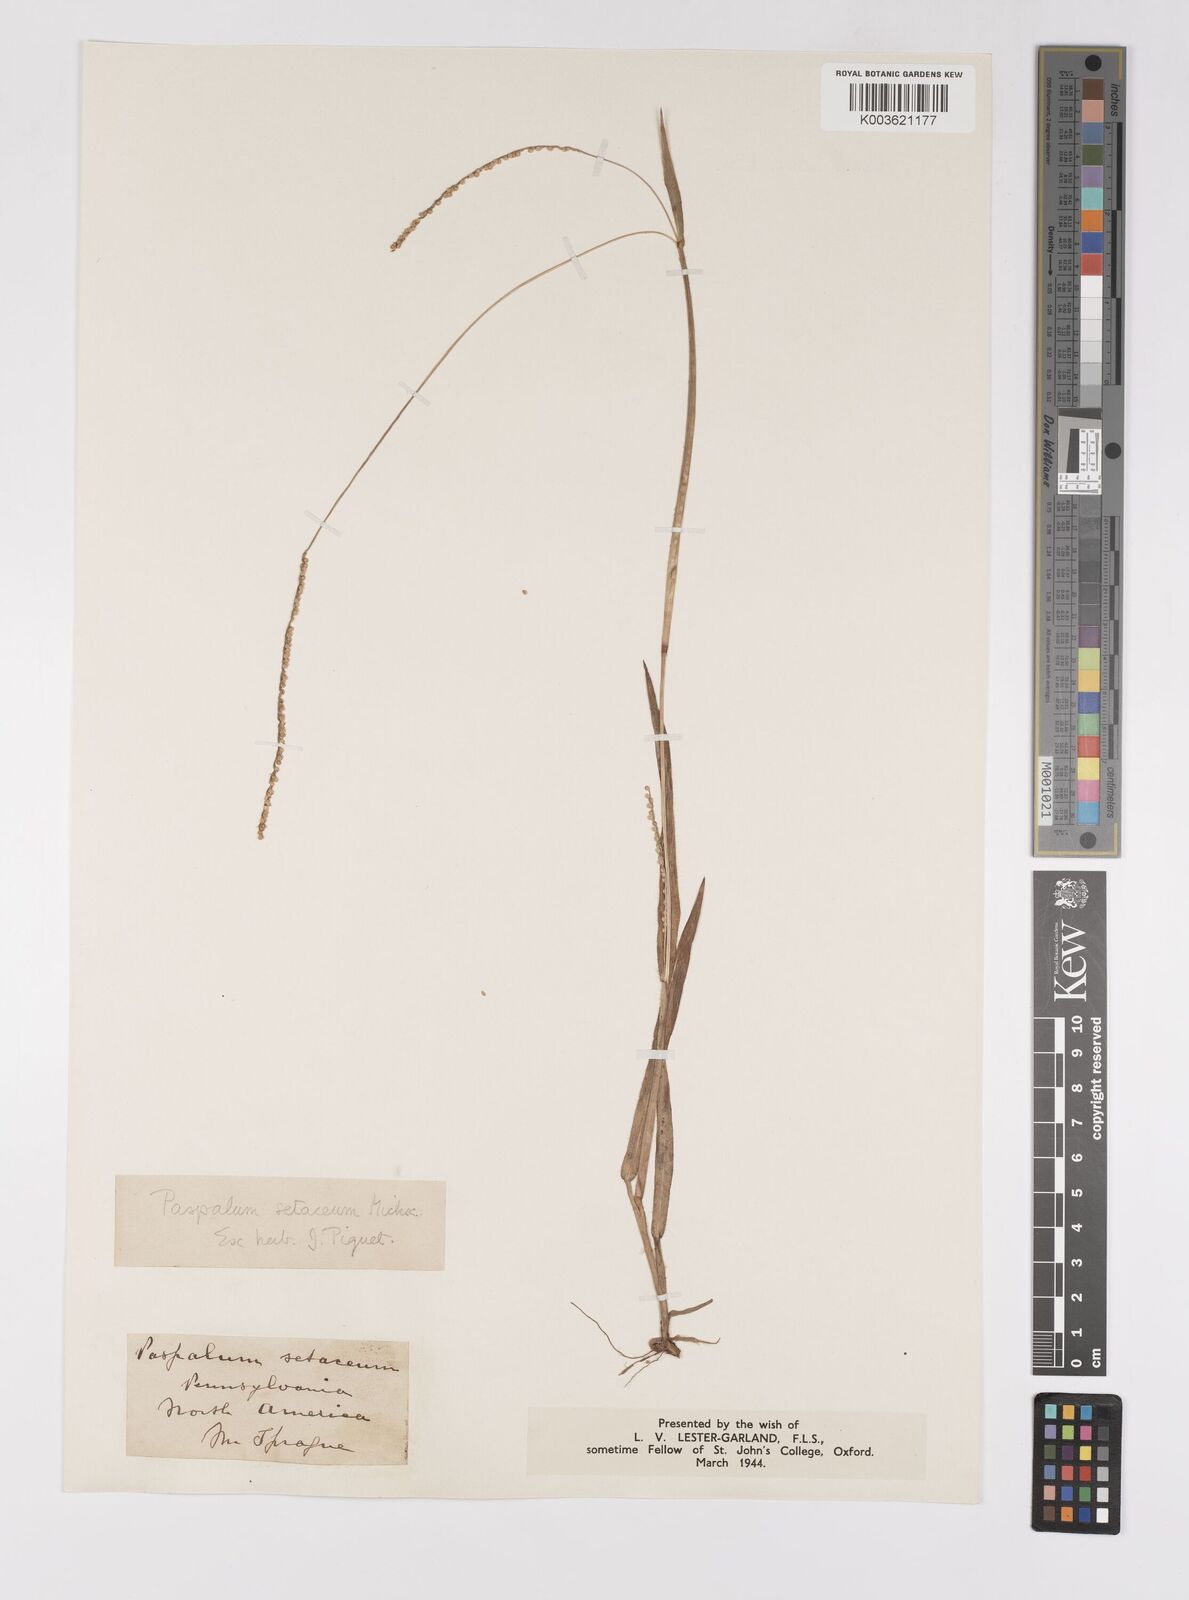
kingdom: Plantae
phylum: Tracheophyta
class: Liliopsida
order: Poales
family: Poaceae
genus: Paspalum
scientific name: Paspalum setaceum
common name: Slender paspalum
